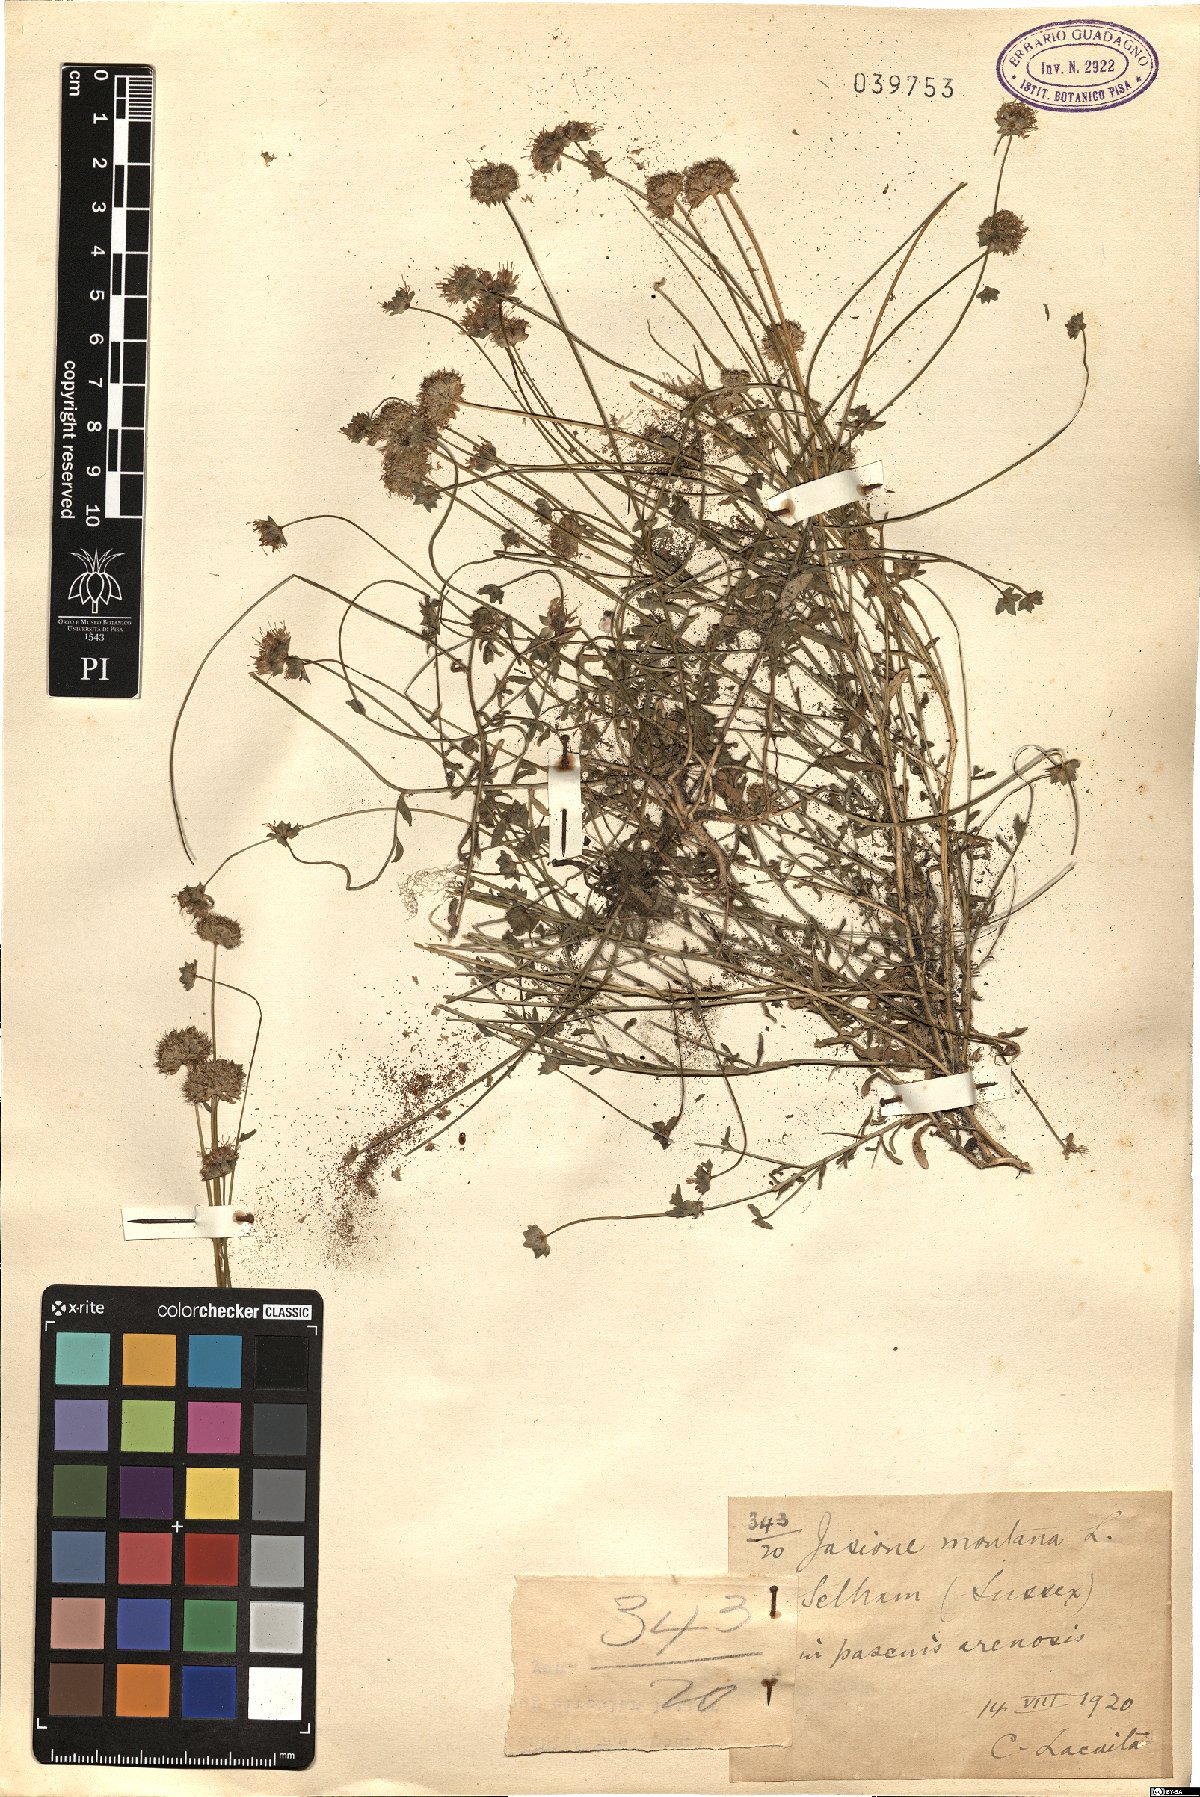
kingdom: Plantae
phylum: Tracheophyta
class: Magnoliopsida
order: Asterales
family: Campanulaceae
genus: Jasione
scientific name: Jasione montana
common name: Sheep's-bit
